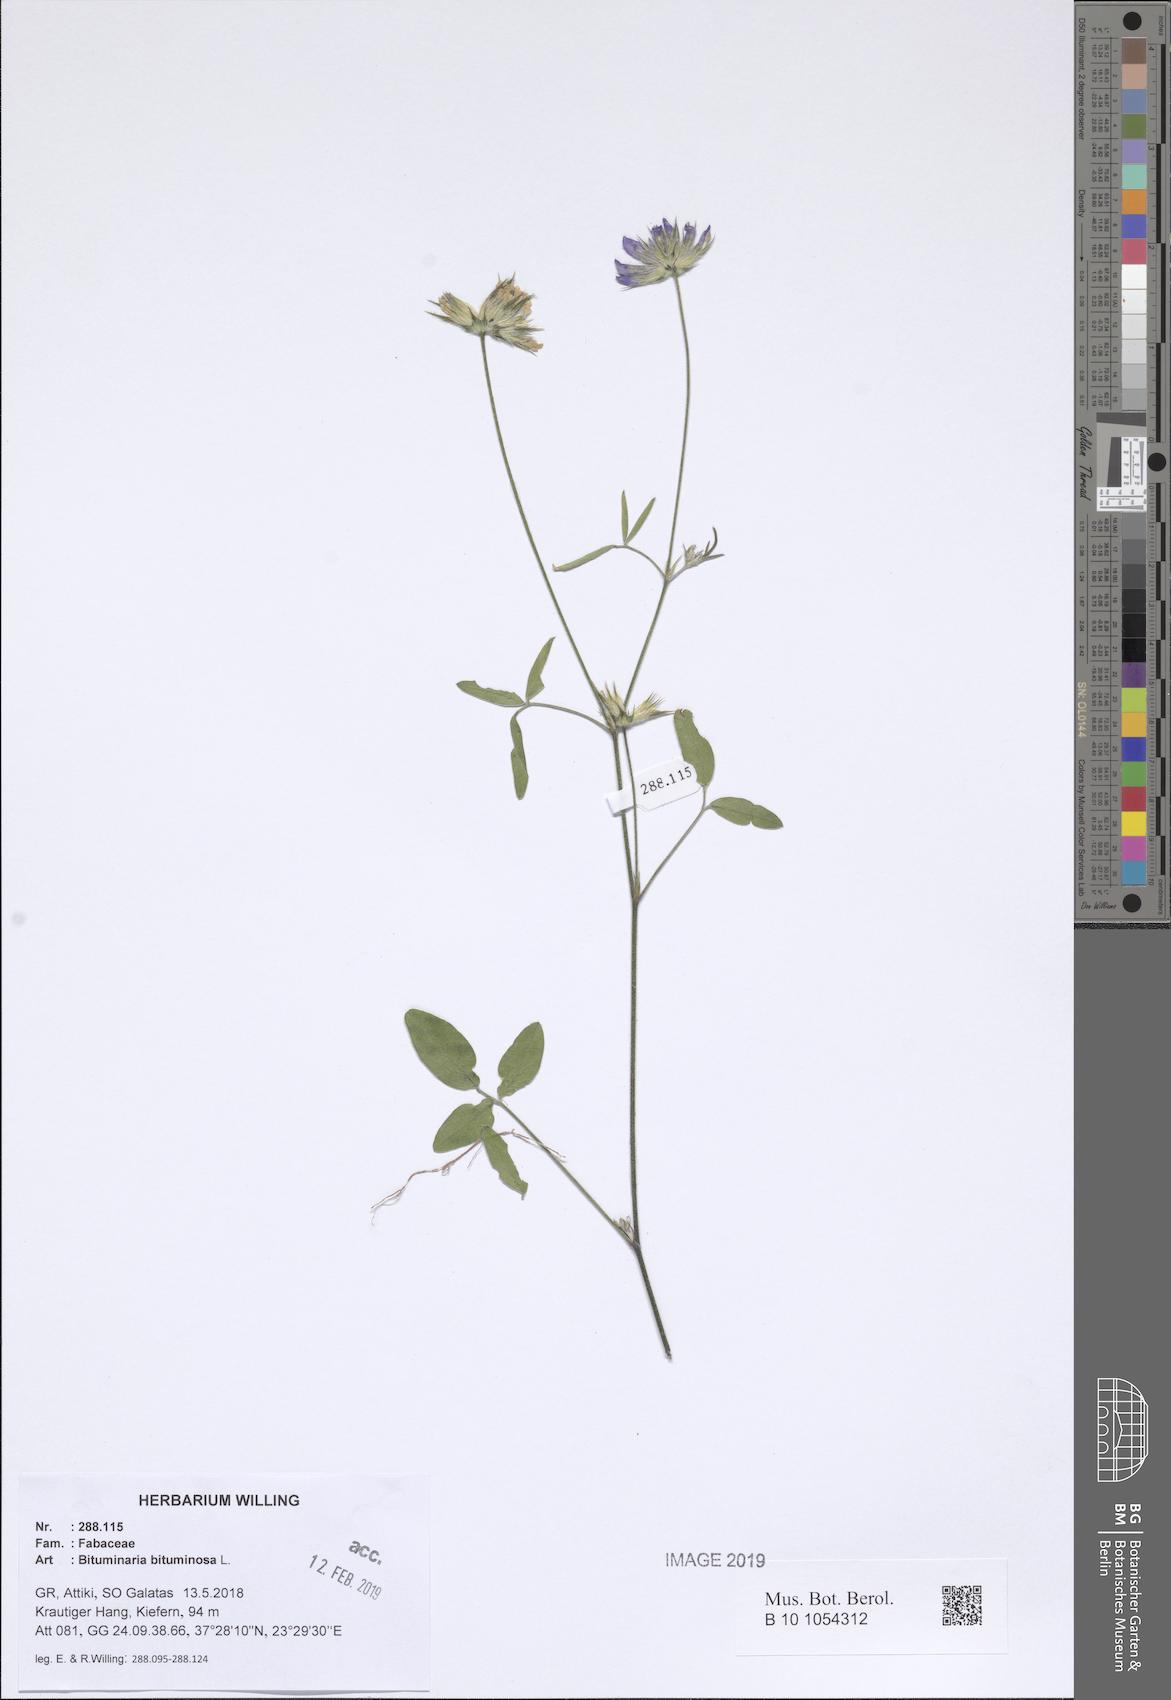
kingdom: Plantae
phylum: Tracheophyta
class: Magnoliopsida
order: Fabales
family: Fabaceae
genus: Bituminaria
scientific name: Bituminaria bituminosa
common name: Arabian pea
